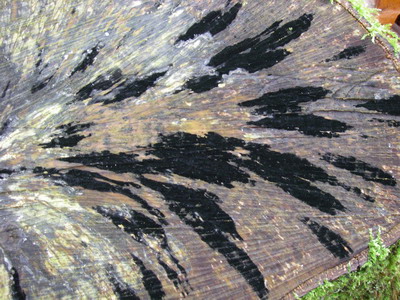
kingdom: Fungi
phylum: Ascomycota
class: Leotiomycetes
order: Helotiales
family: Helotiaceae
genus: Bispora
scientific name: Bispora pallescens
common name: måtte-snitskive
